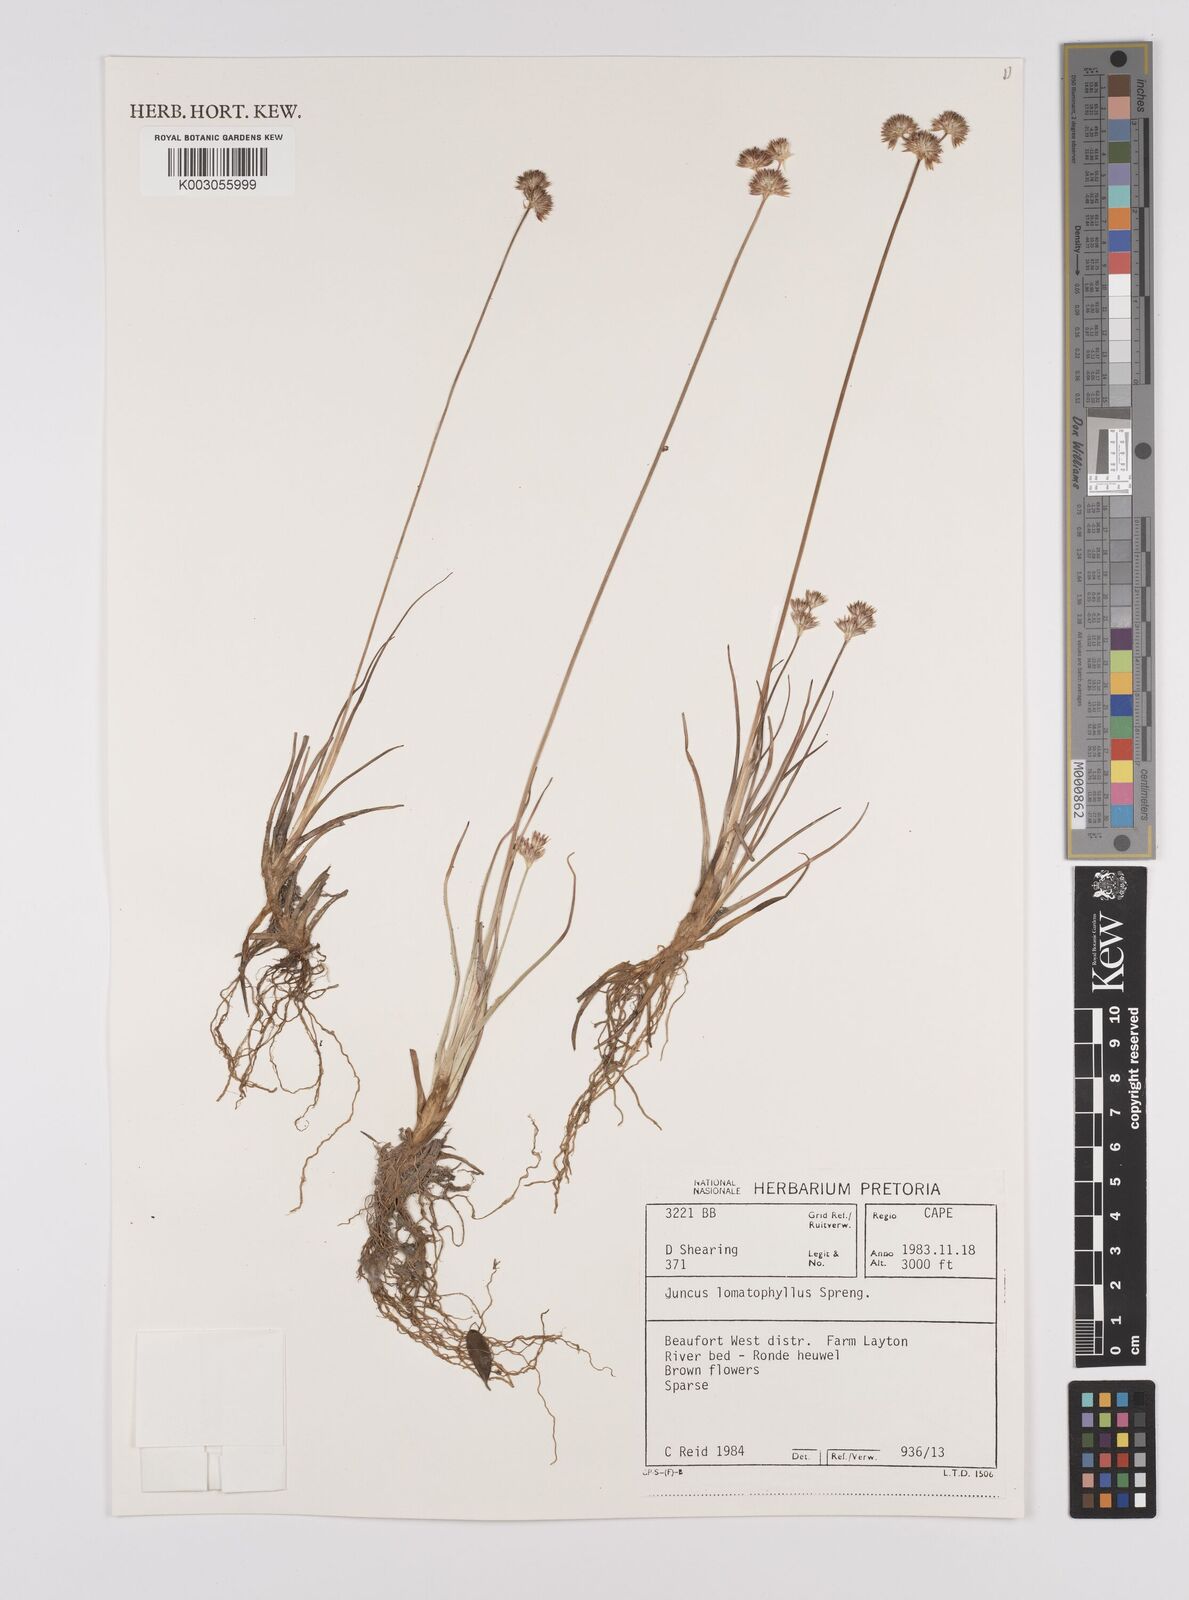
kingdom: Plantae
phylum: Tracheophyta
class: Liliopsida
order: Poales
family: Juncaceae
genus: Juncus
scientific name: Juncus lomatophyllus
